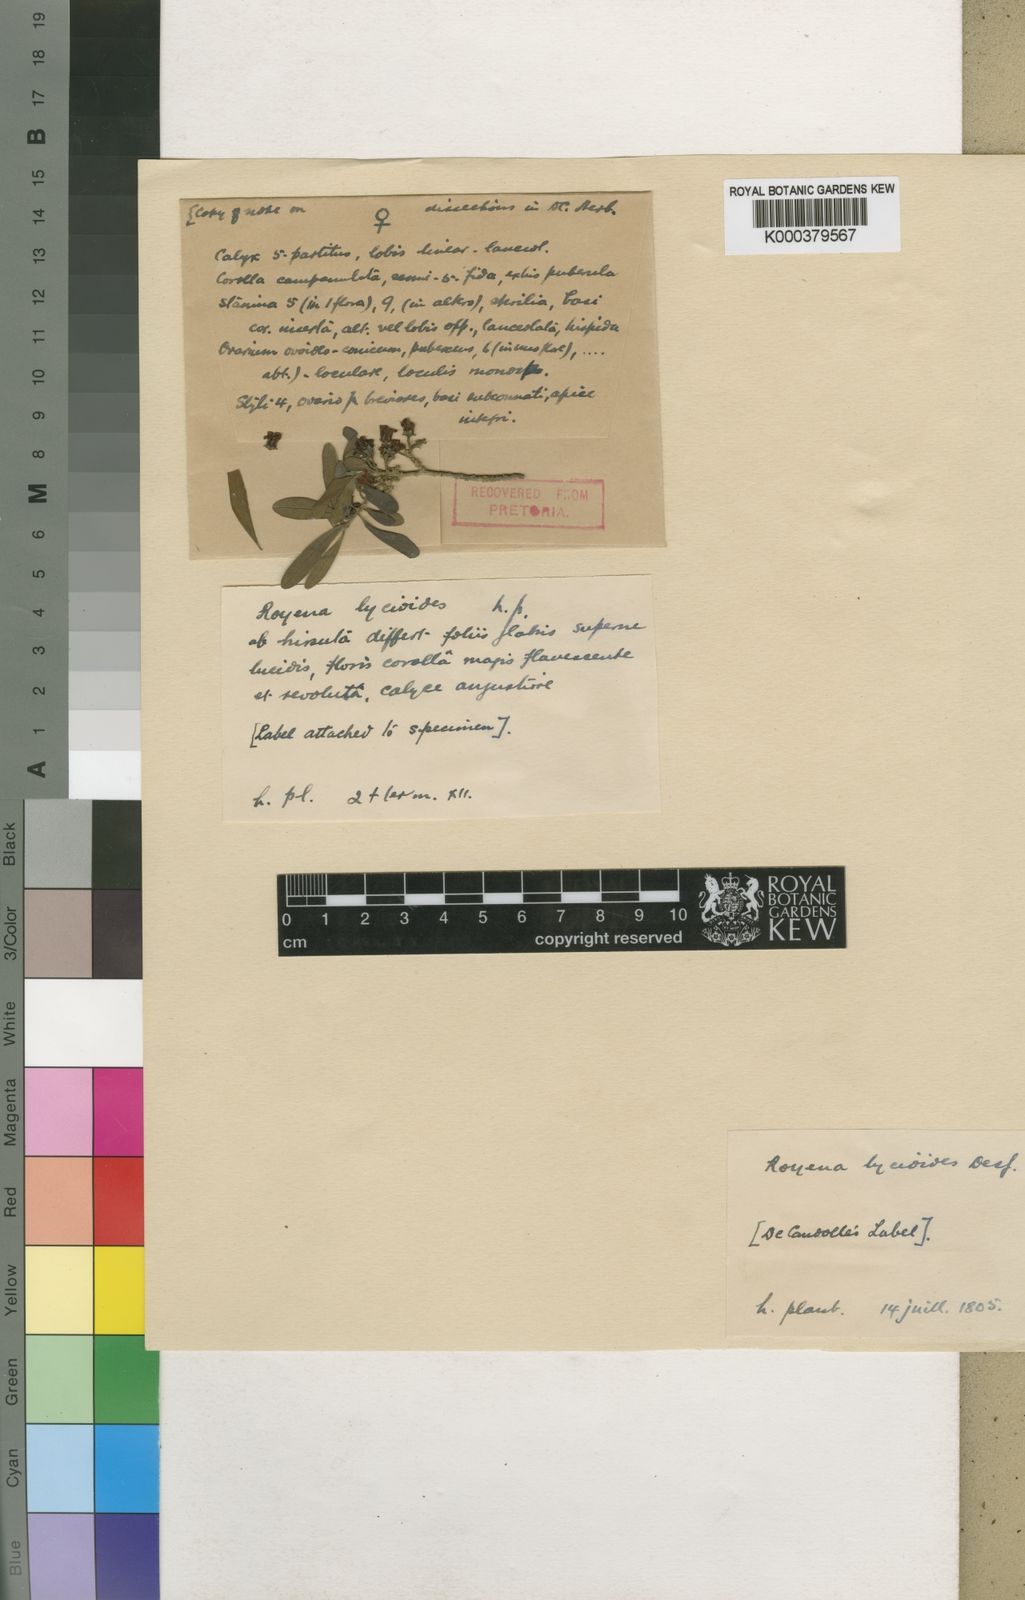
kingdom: Plantae
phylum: Tracheophyta
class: Magnoliopsida
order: Ericales
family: Ebenaceae
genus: Diospyros
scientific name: Diospyros lycioides
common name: Red star apple
